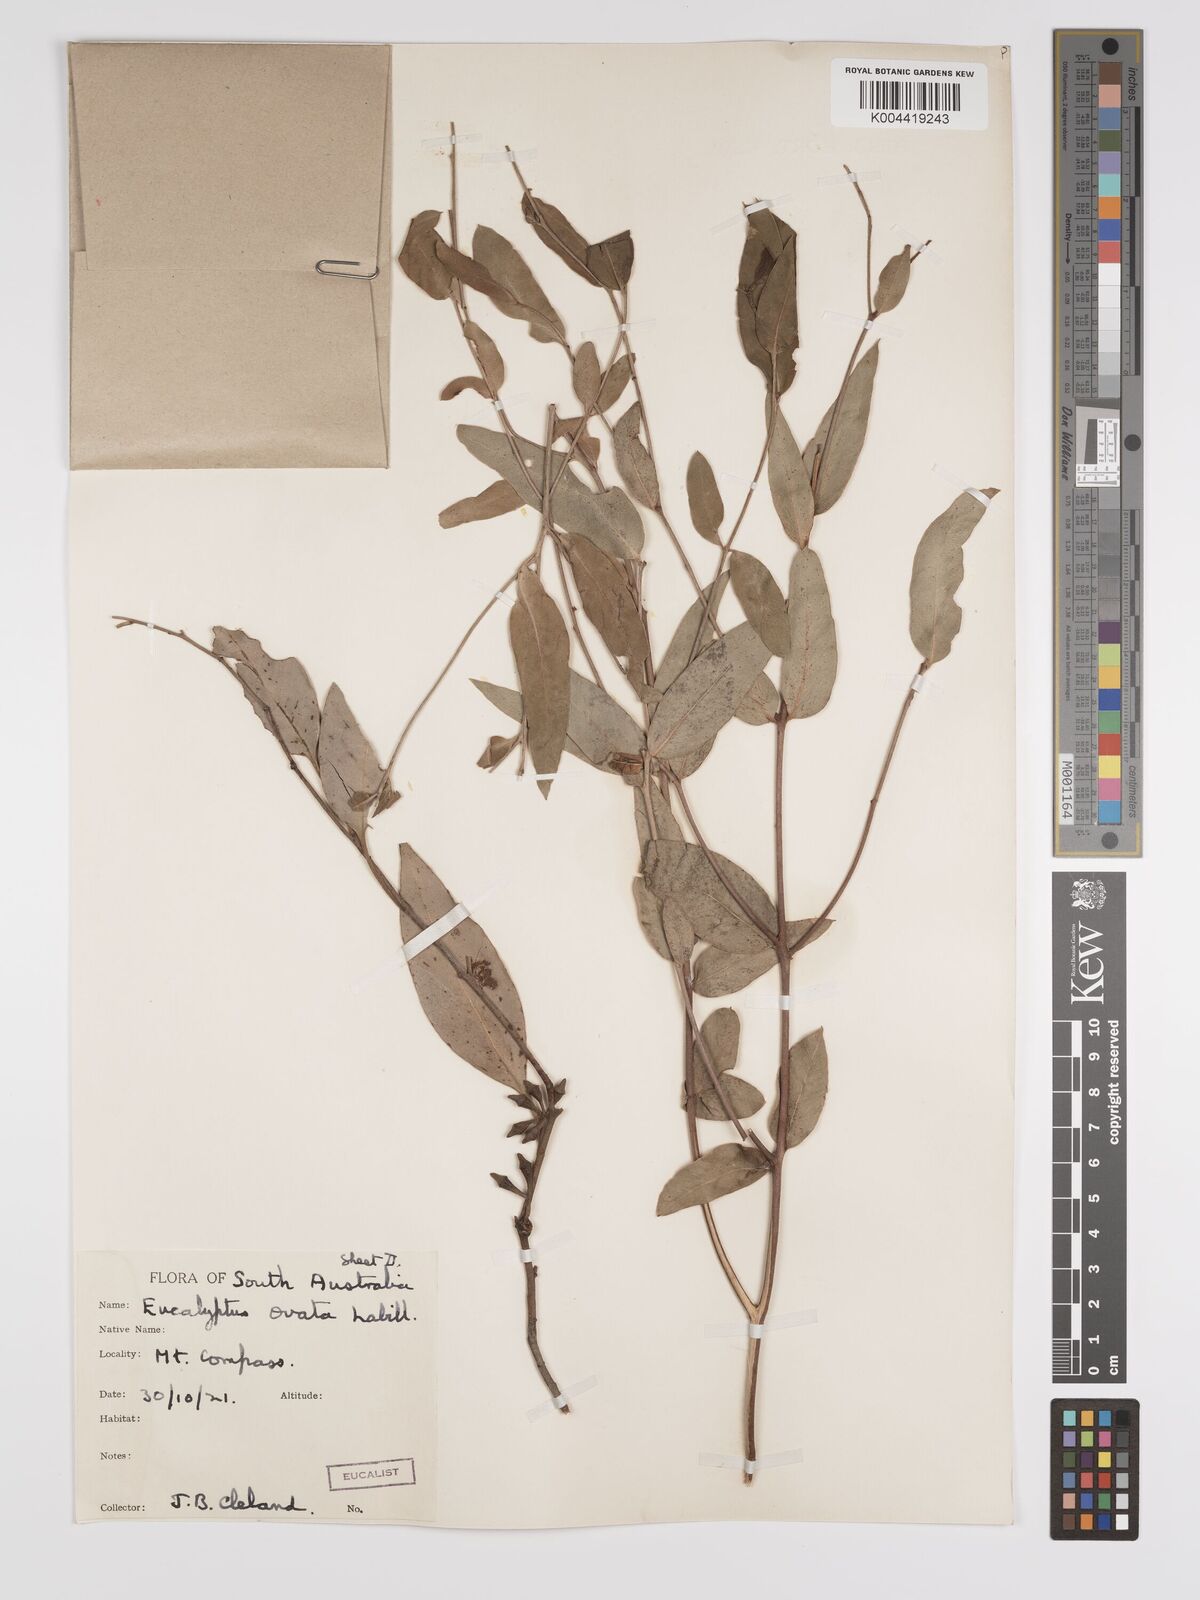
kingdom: Plantae
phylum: Tracheophyta
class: Magnoliopsida
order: Myrtales
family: Myrtaceae
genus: Eucalyptus
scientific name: Eucalyptus ovata
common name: Black-gum
